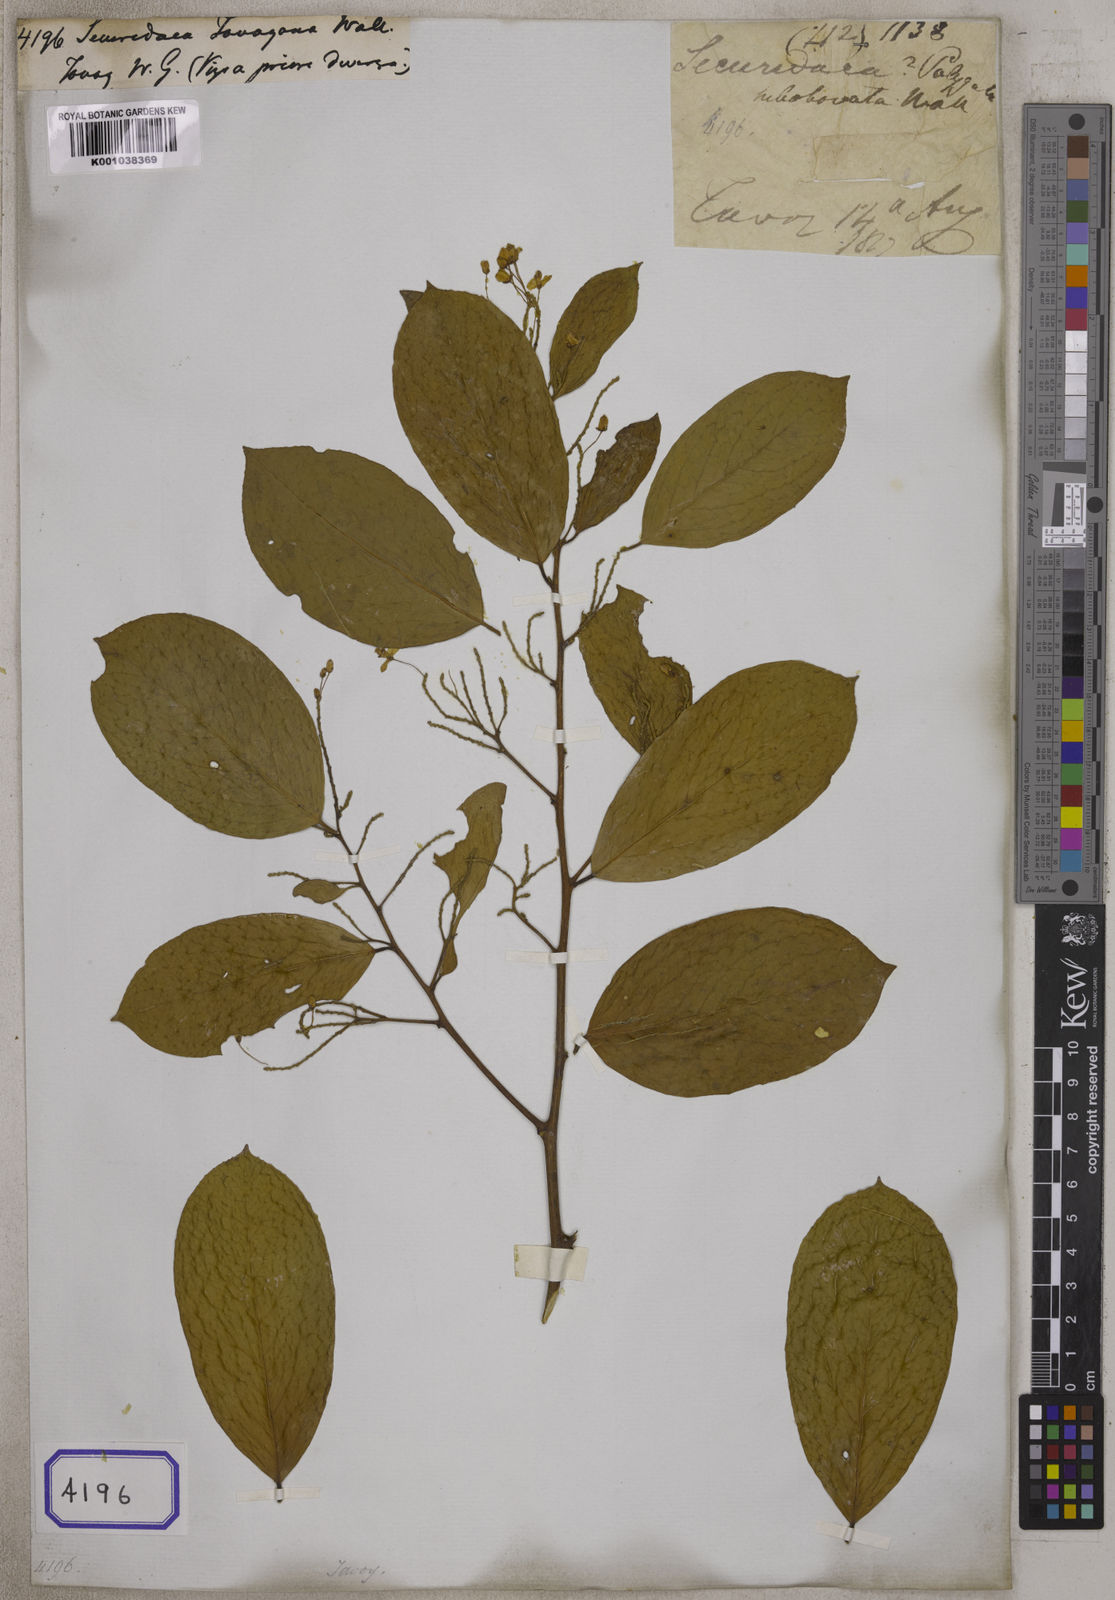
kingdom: Plantae
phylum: Tracheophyta
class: Magnoliopsida
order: Fabales
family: Polygalaceae
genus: Securidaca
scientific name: Securidaca
